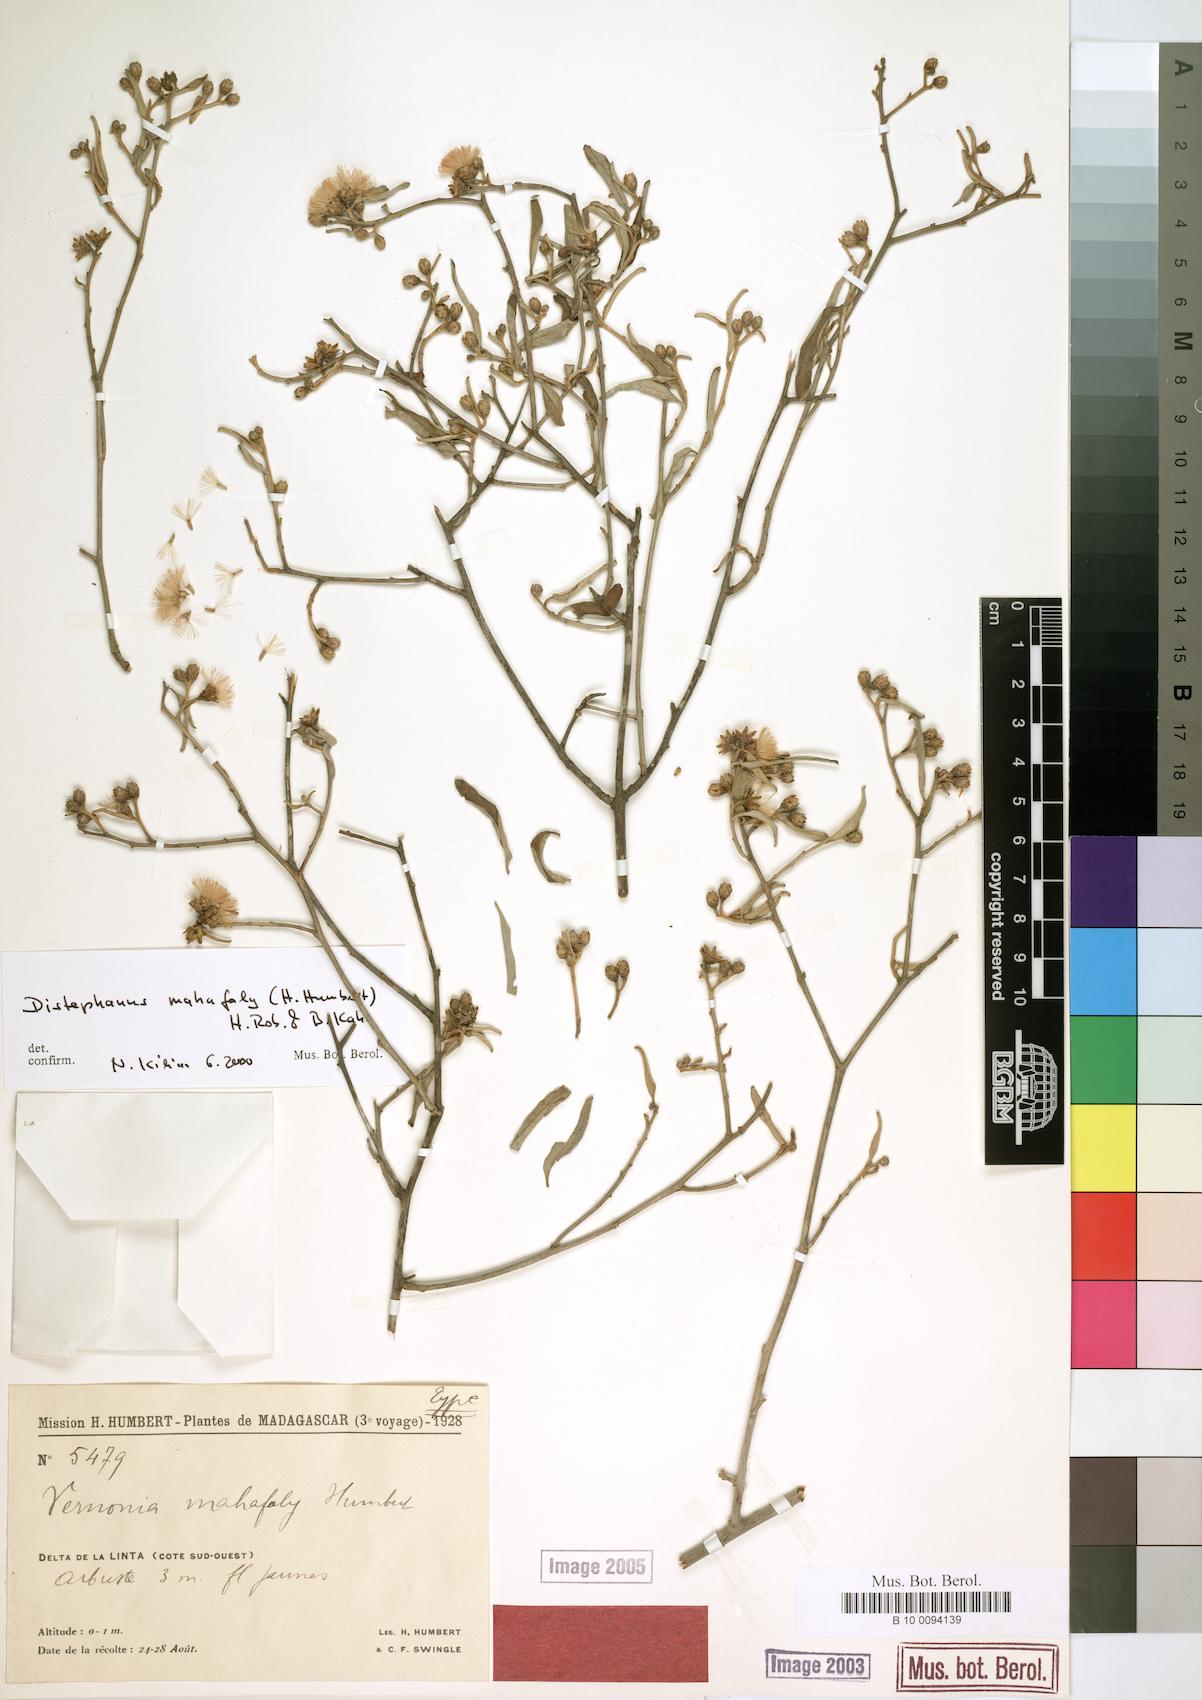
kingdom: Plantae
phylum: Tracheophyta
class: Magnoliopsida
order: Asterales
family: Asteraceae
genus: Distephanus
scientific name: Distephanus mahafaly
